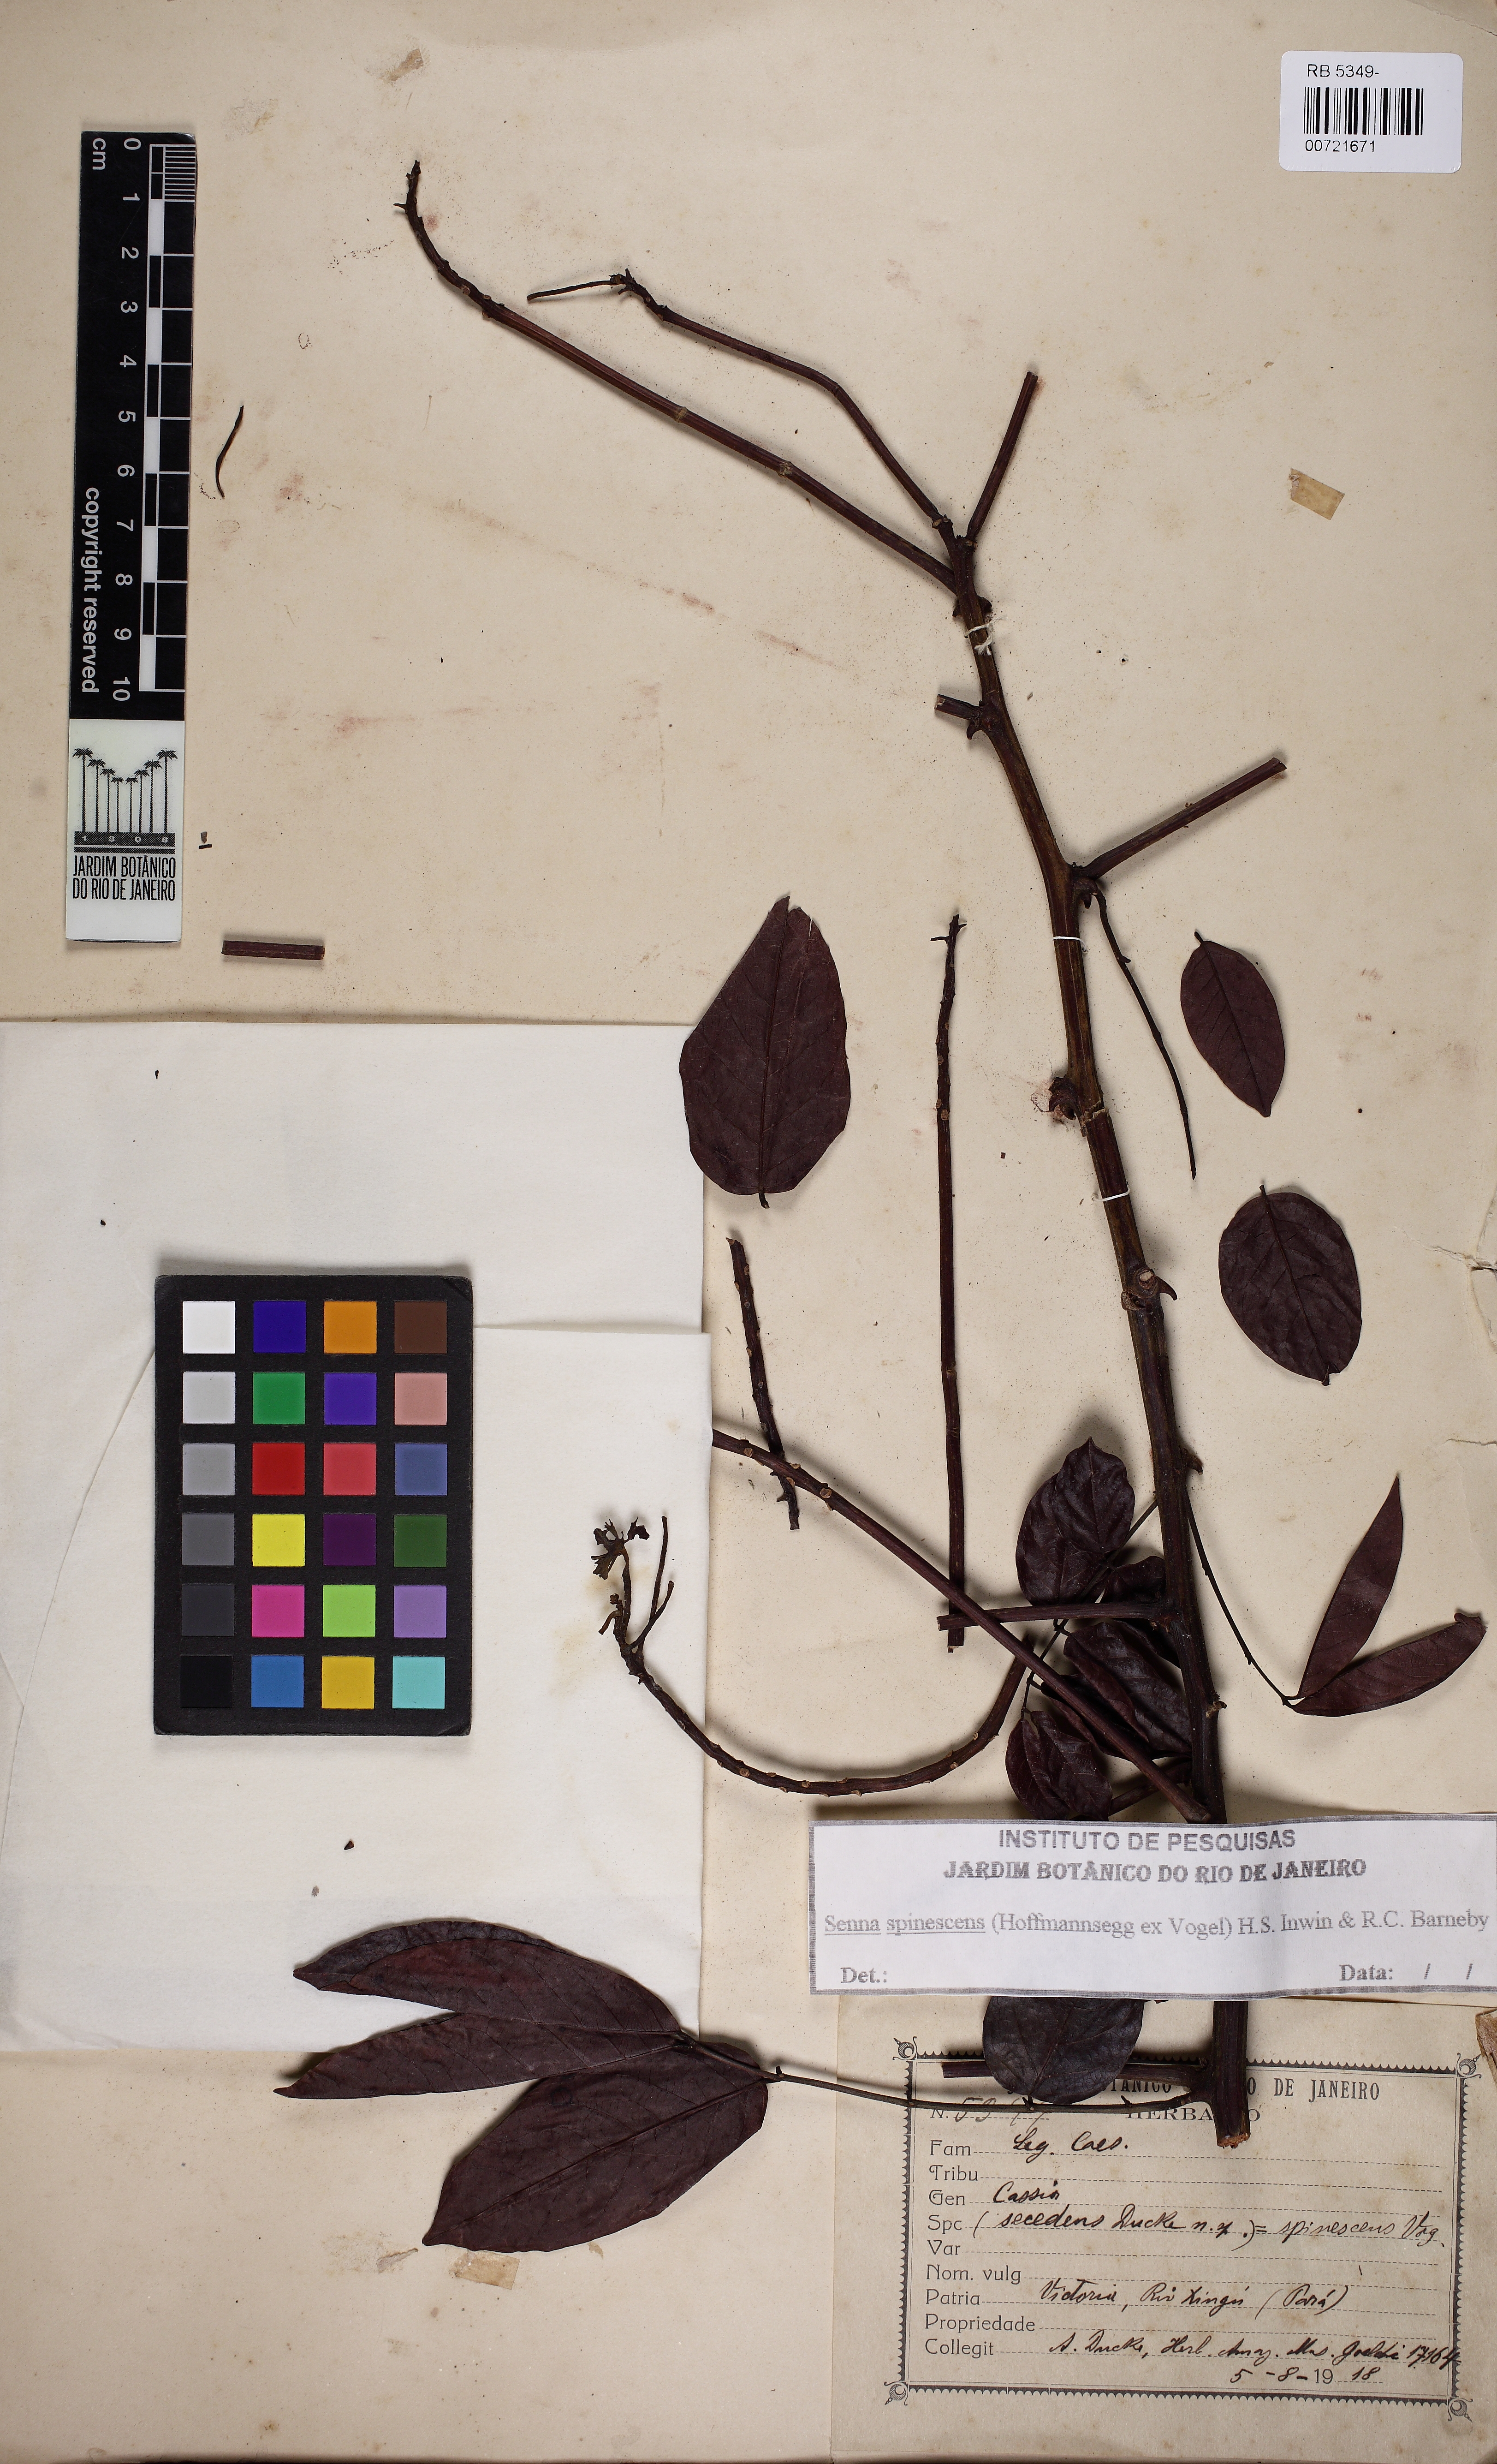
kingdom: Plantae
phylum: Tracheophyta
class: Magnoliopsida
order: Fabales
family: Fabaceae
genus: Senna
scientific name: Senna spinescens
